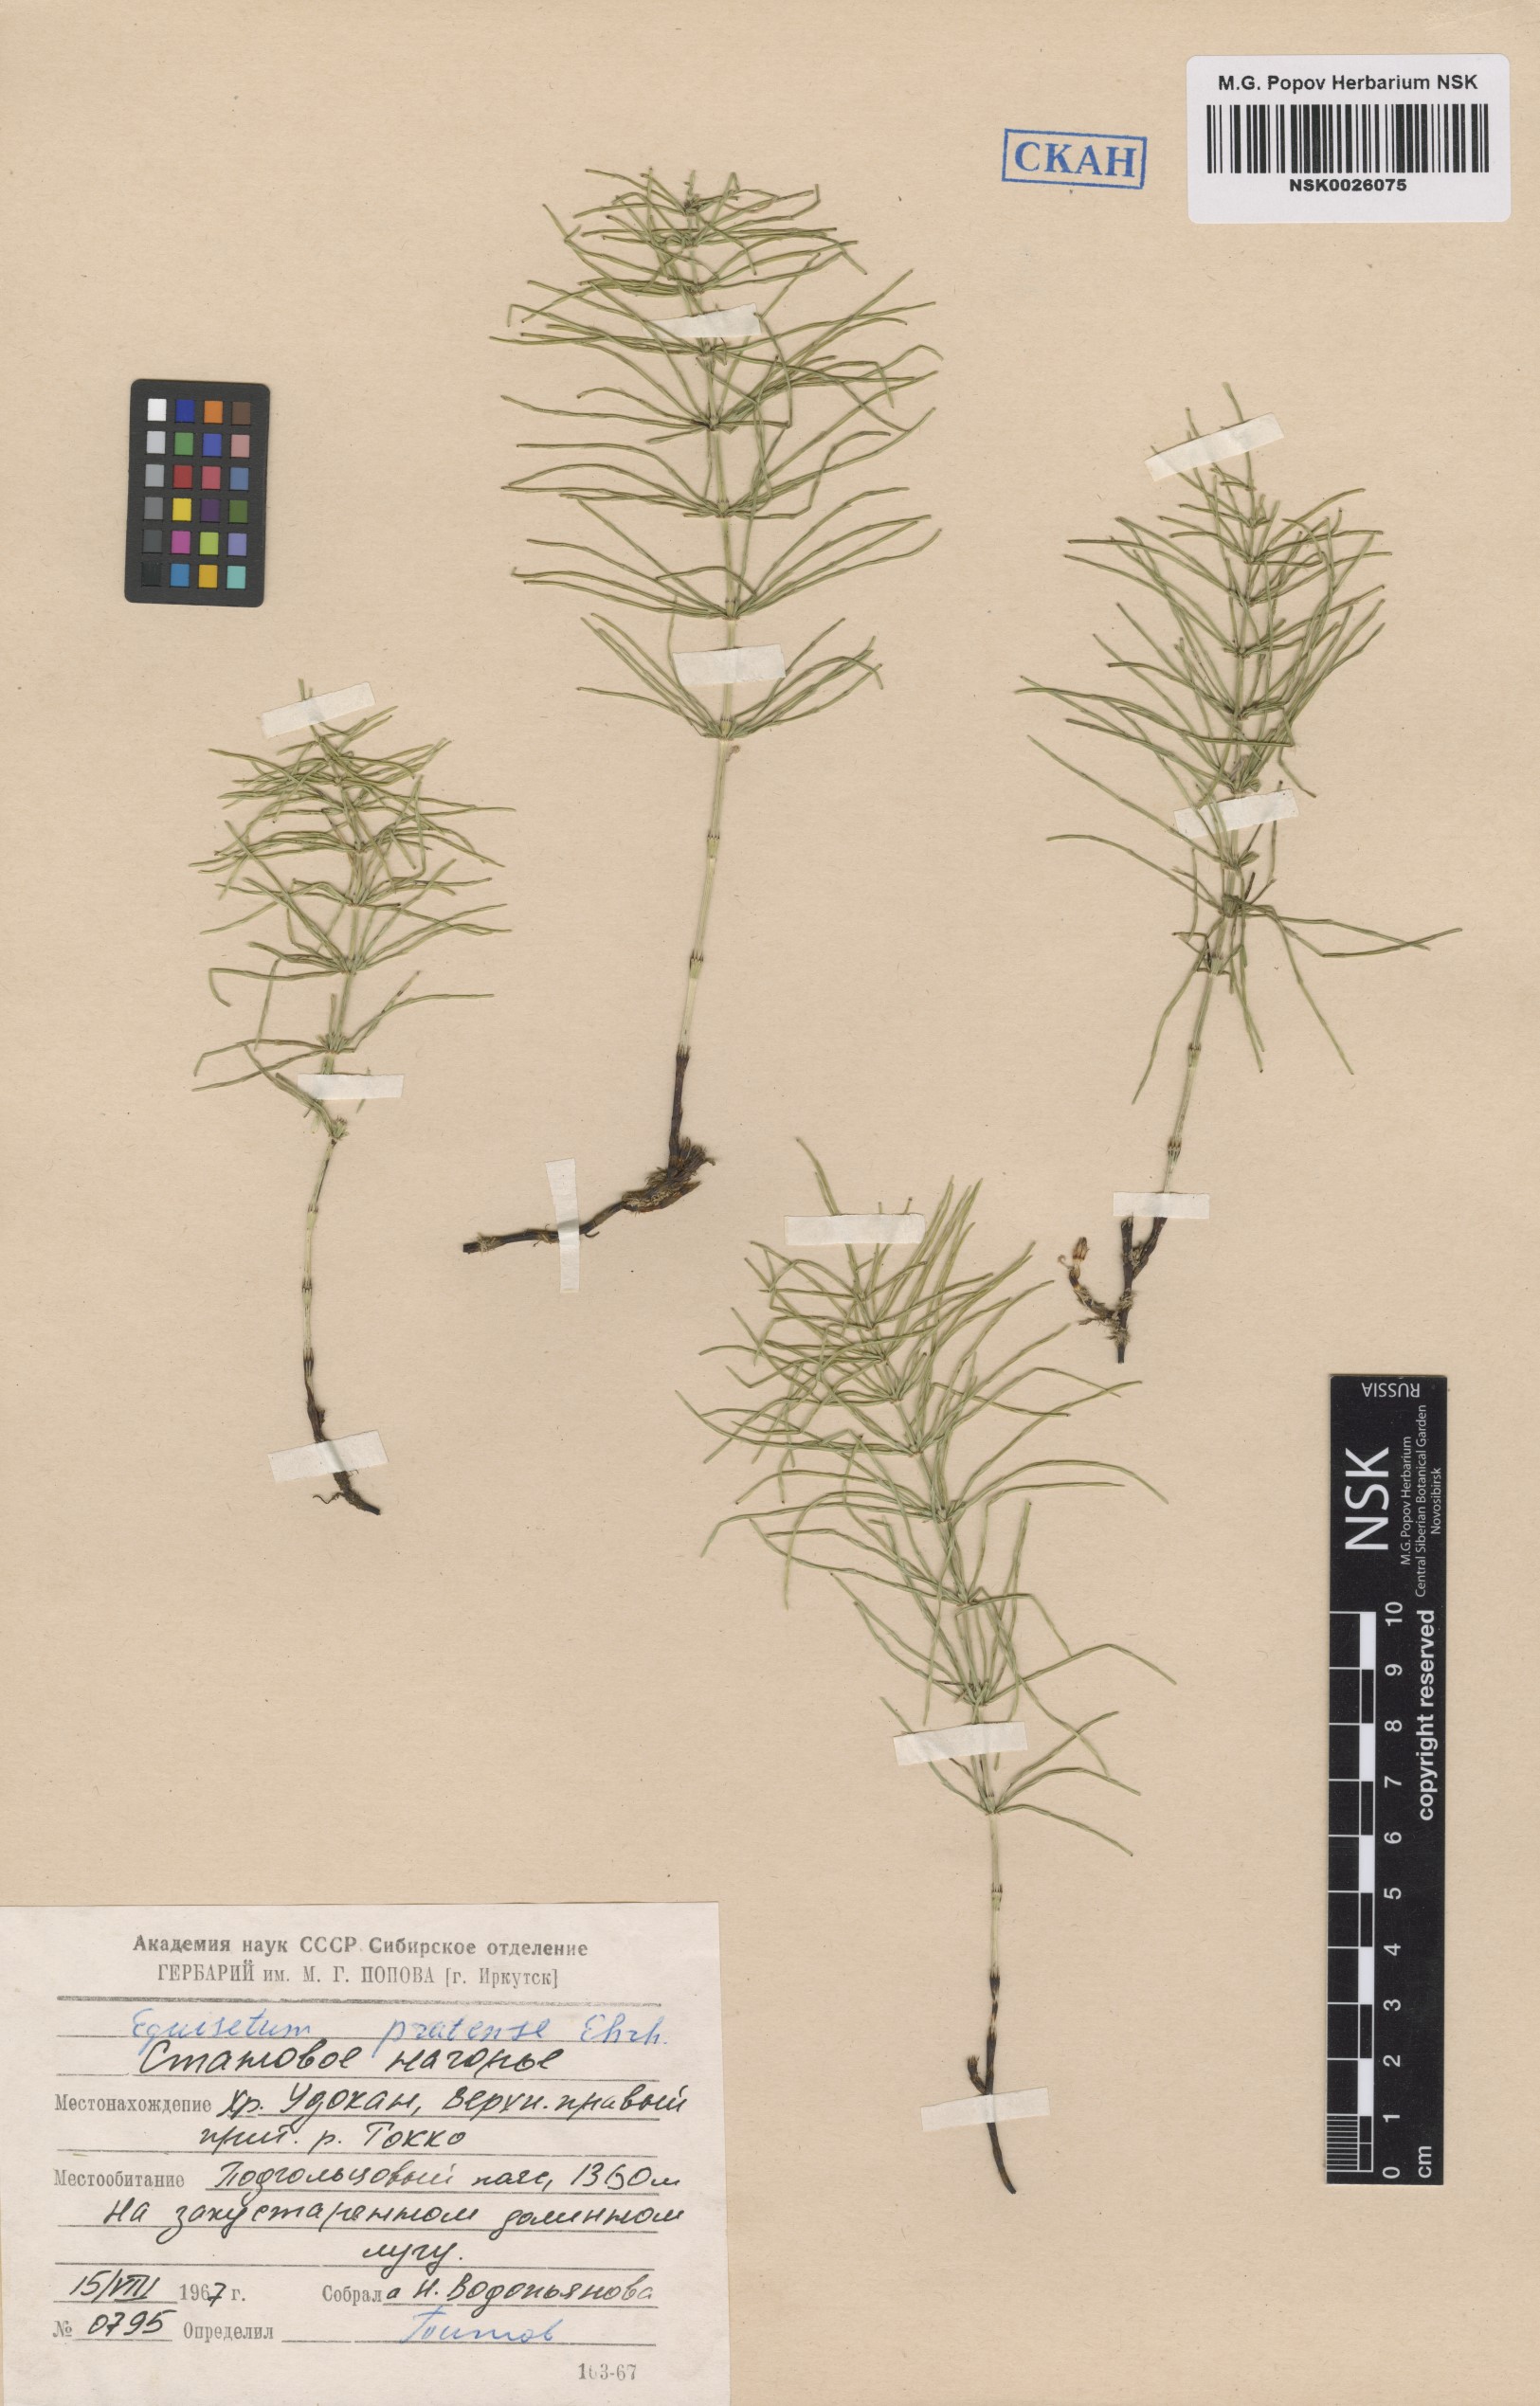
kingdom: Plantae
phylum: Tracheophyta
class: Polypodiopsida
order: Equisetales
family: Equisetaceae
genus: Equisetum
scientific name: Equisetum pratense
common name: Meadow horsetail
